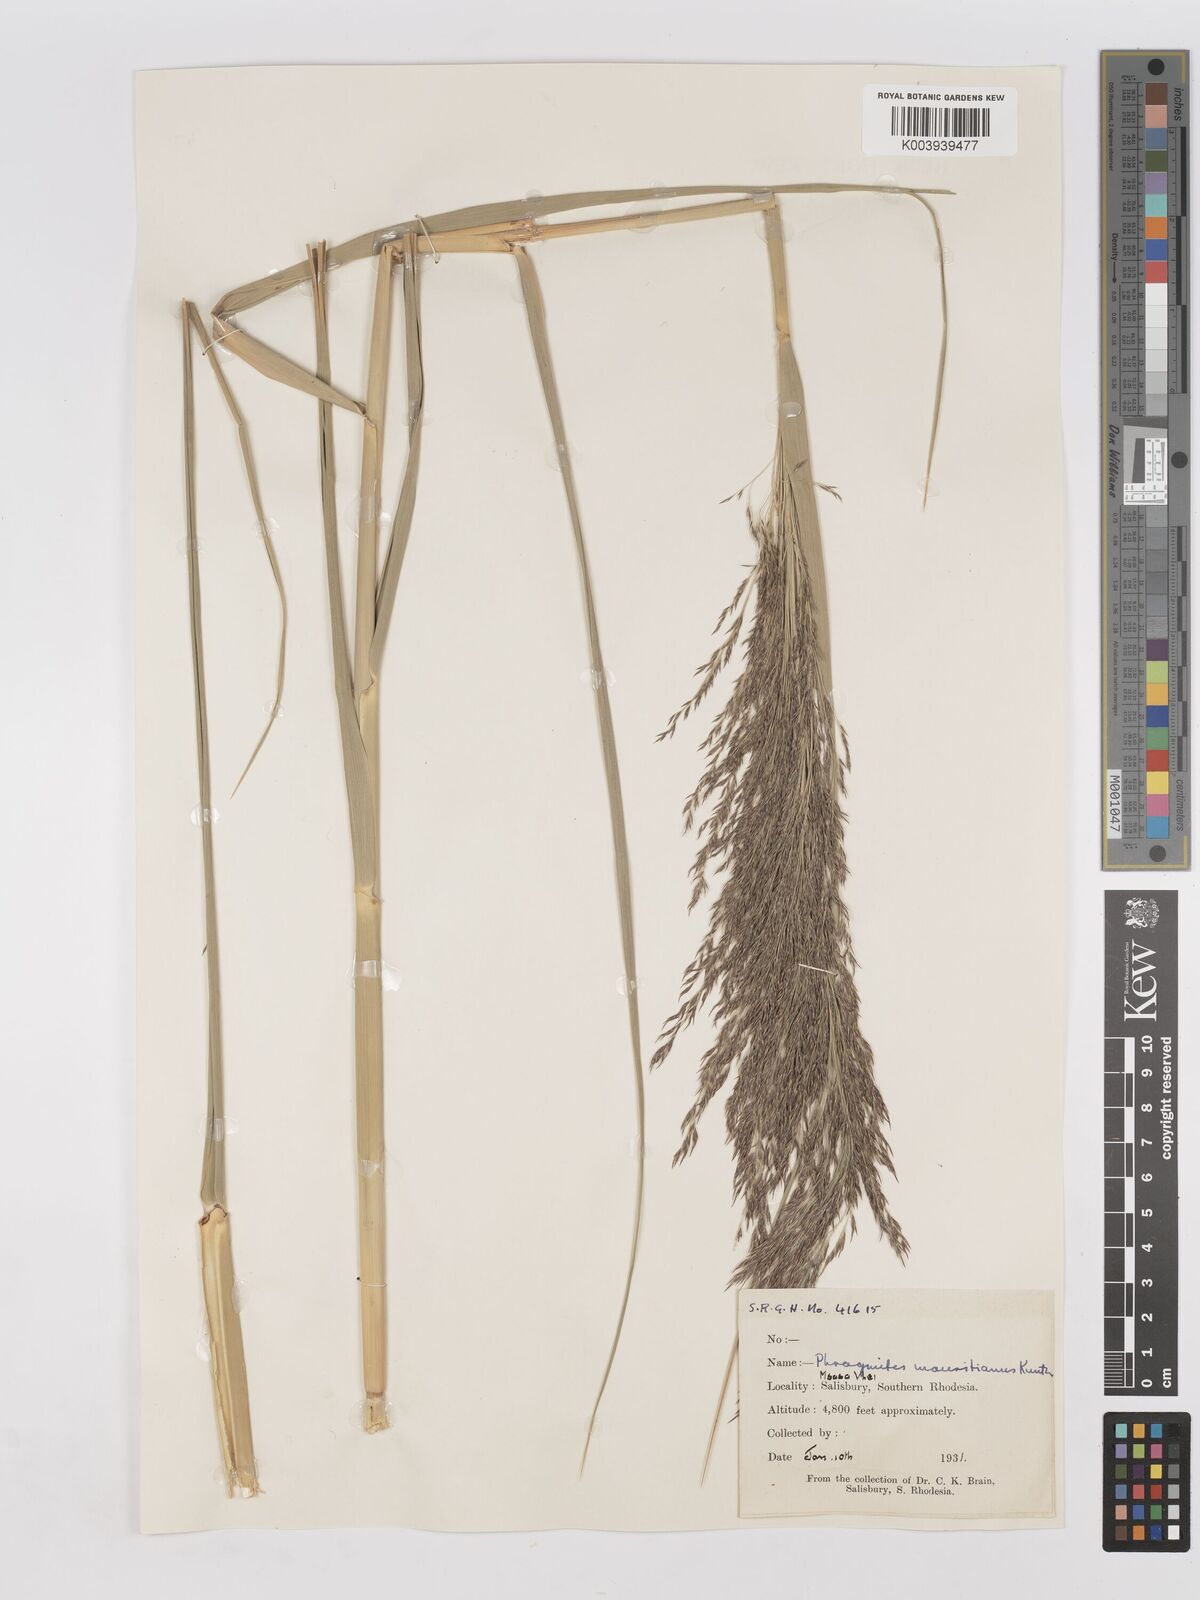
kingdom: Plantae
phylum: Tracheophyta
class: Liliopsida
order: Poales
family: Poaceae
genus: Phragmites
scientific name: Phragmites mauritianus
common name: Reed grass
